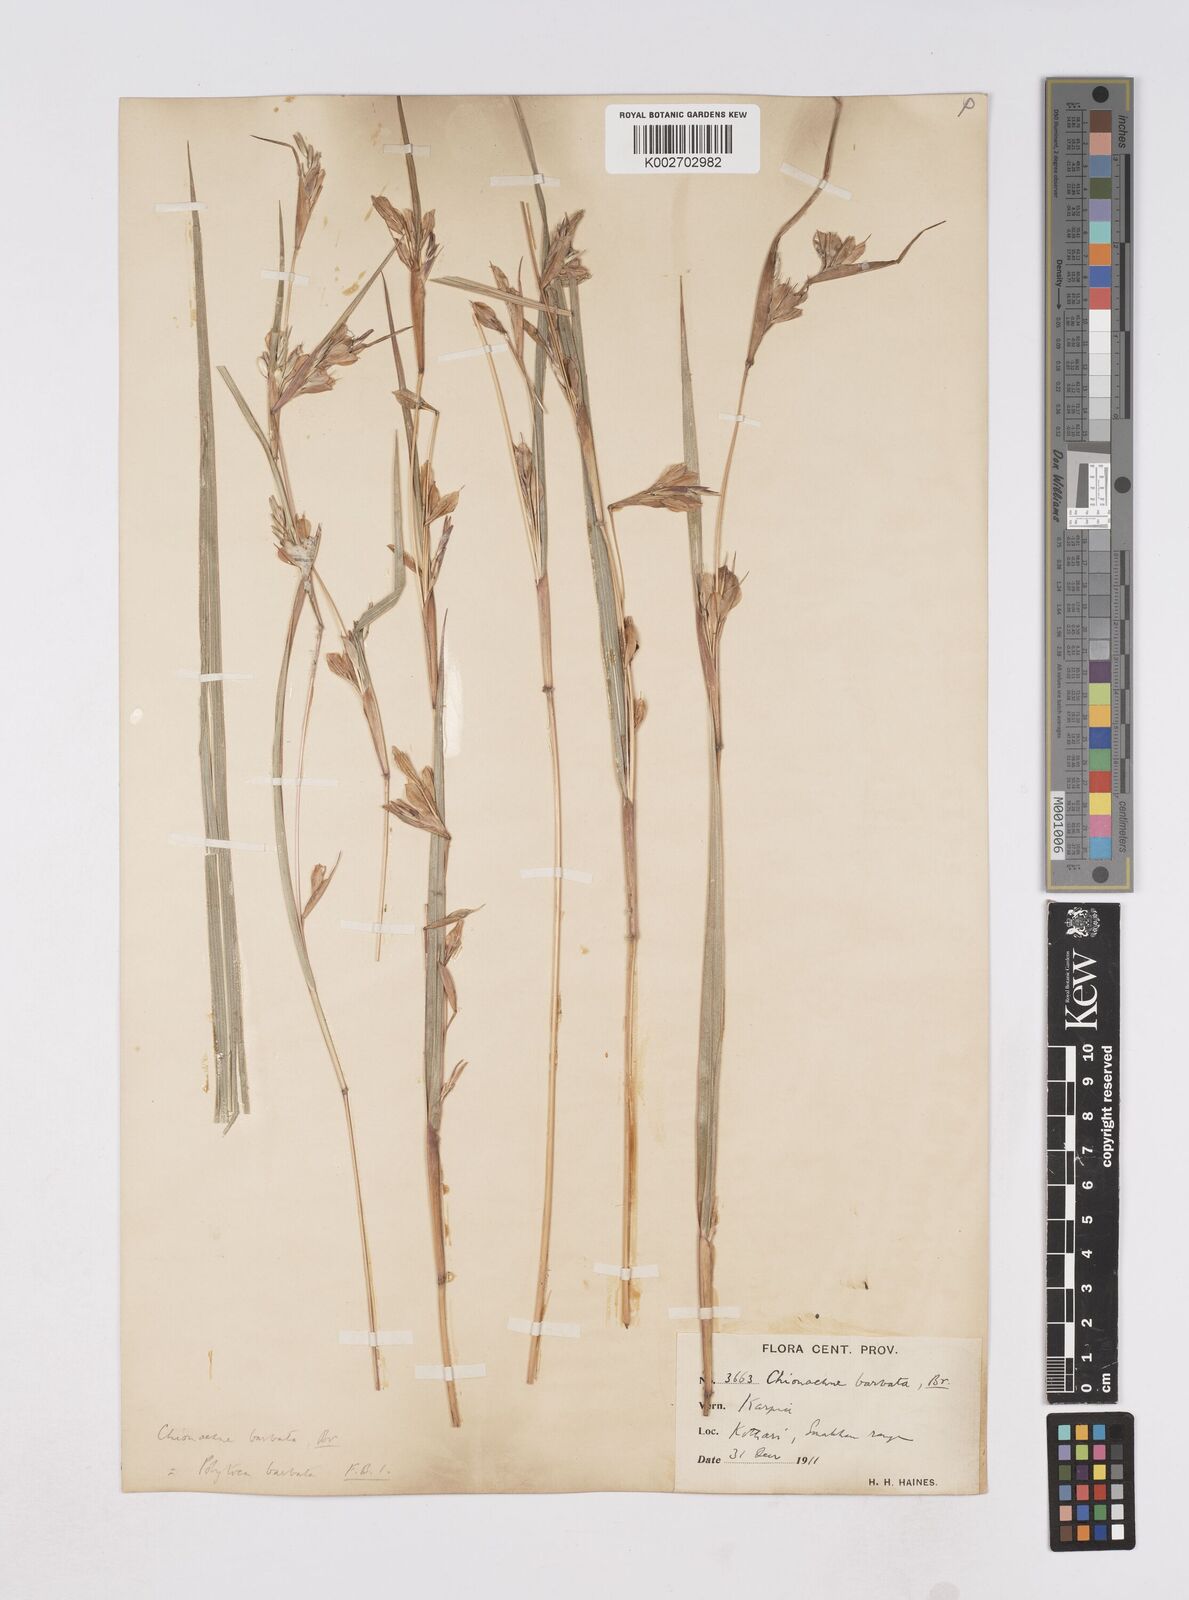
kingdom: Plantae
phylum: Tracheophyta
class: Liliopsida
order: Poales
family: Poaceae
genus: Polytoca
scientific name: Polytoca gigantea
